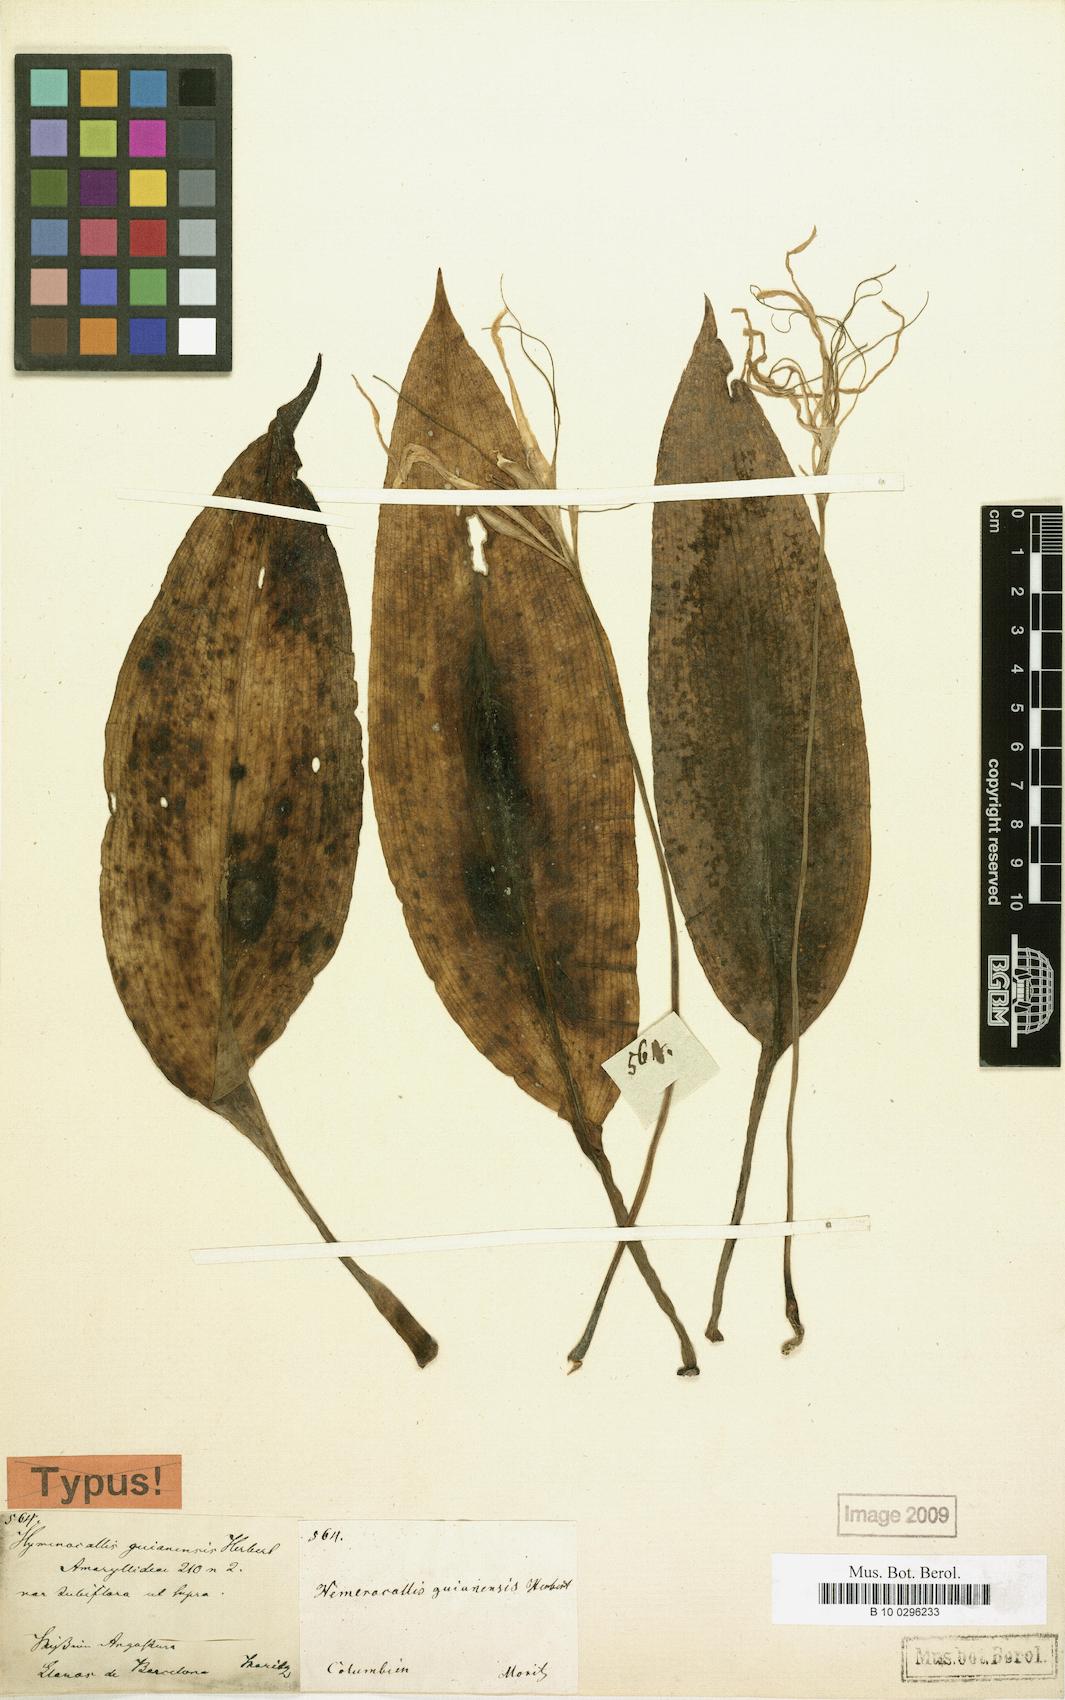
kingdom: Plantae
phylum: Tracheophyta
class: Liliopsida
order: Asparagales
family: Amaryllidaceae
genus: Hymenocallis
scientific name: Hymenocallis tubiflora
